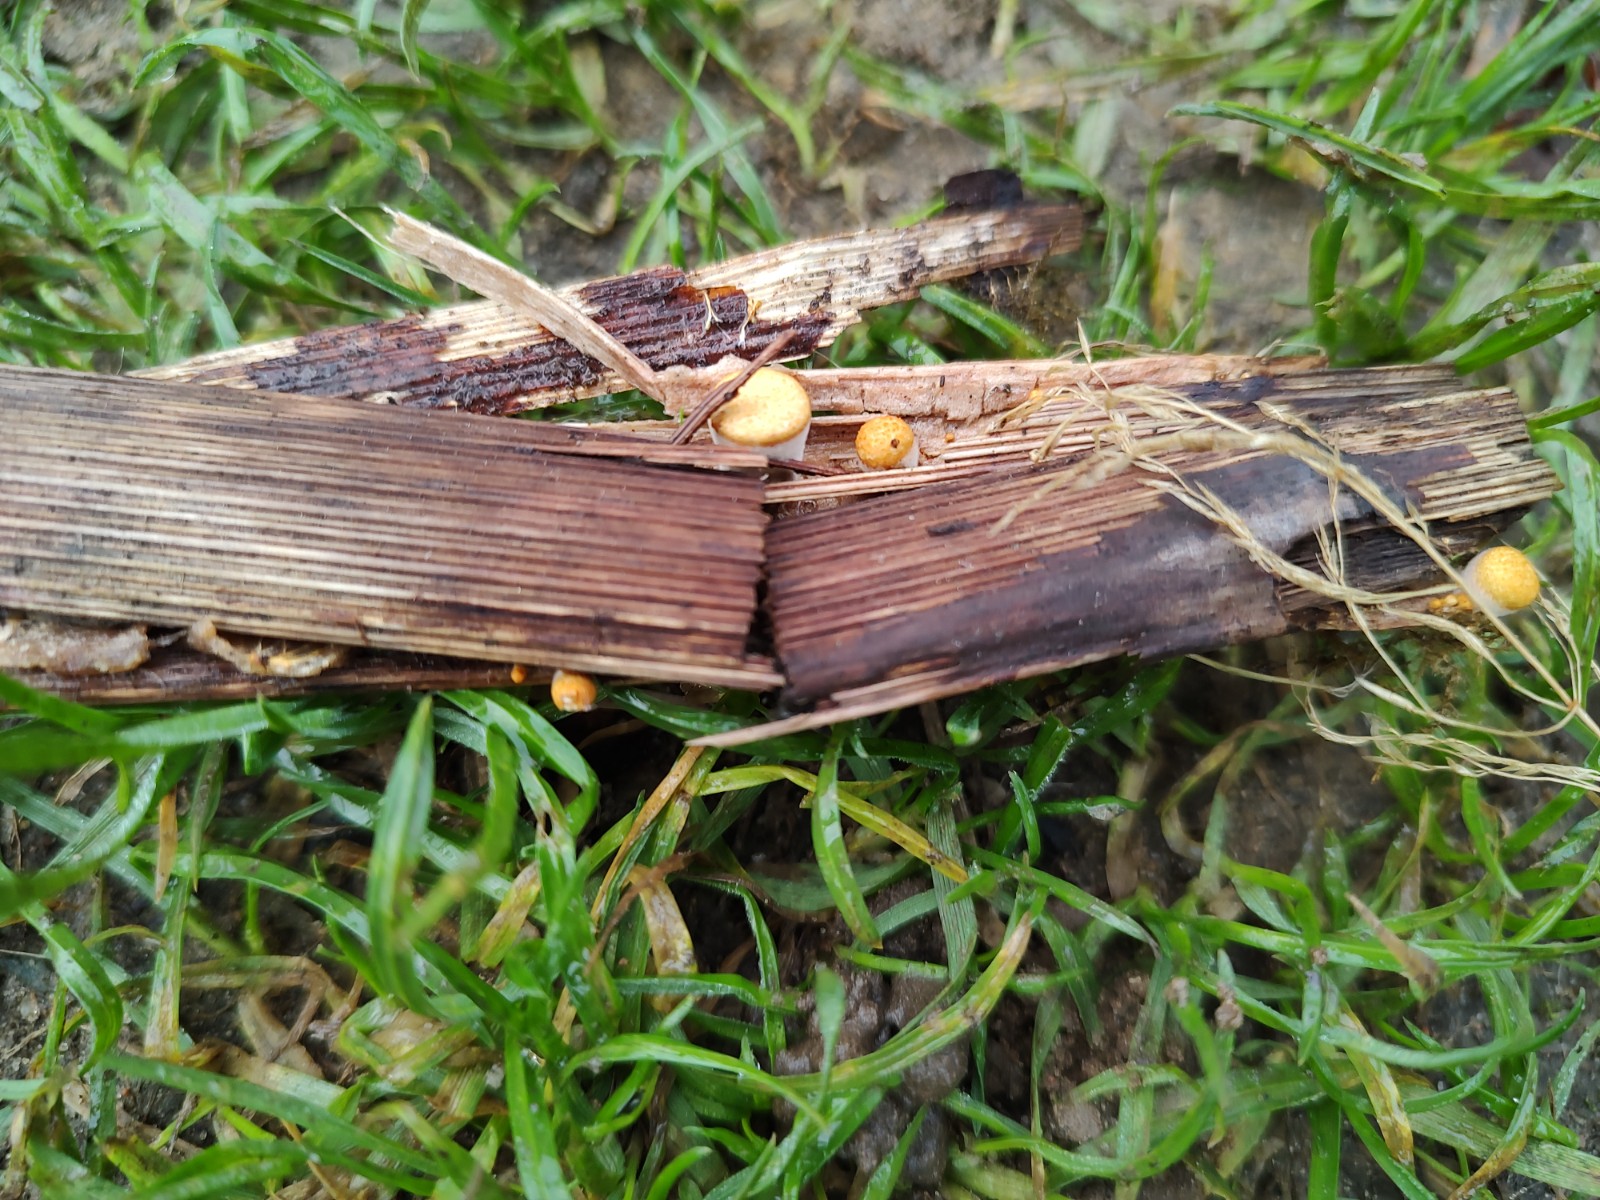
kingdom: Fungi
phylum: Basidiomycota
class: Agaricomycetes
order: Agaricales
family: Nidulariaceae
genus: Crucibulum
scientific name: Crucibulum crucibuliforme
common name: krukkesvamp
